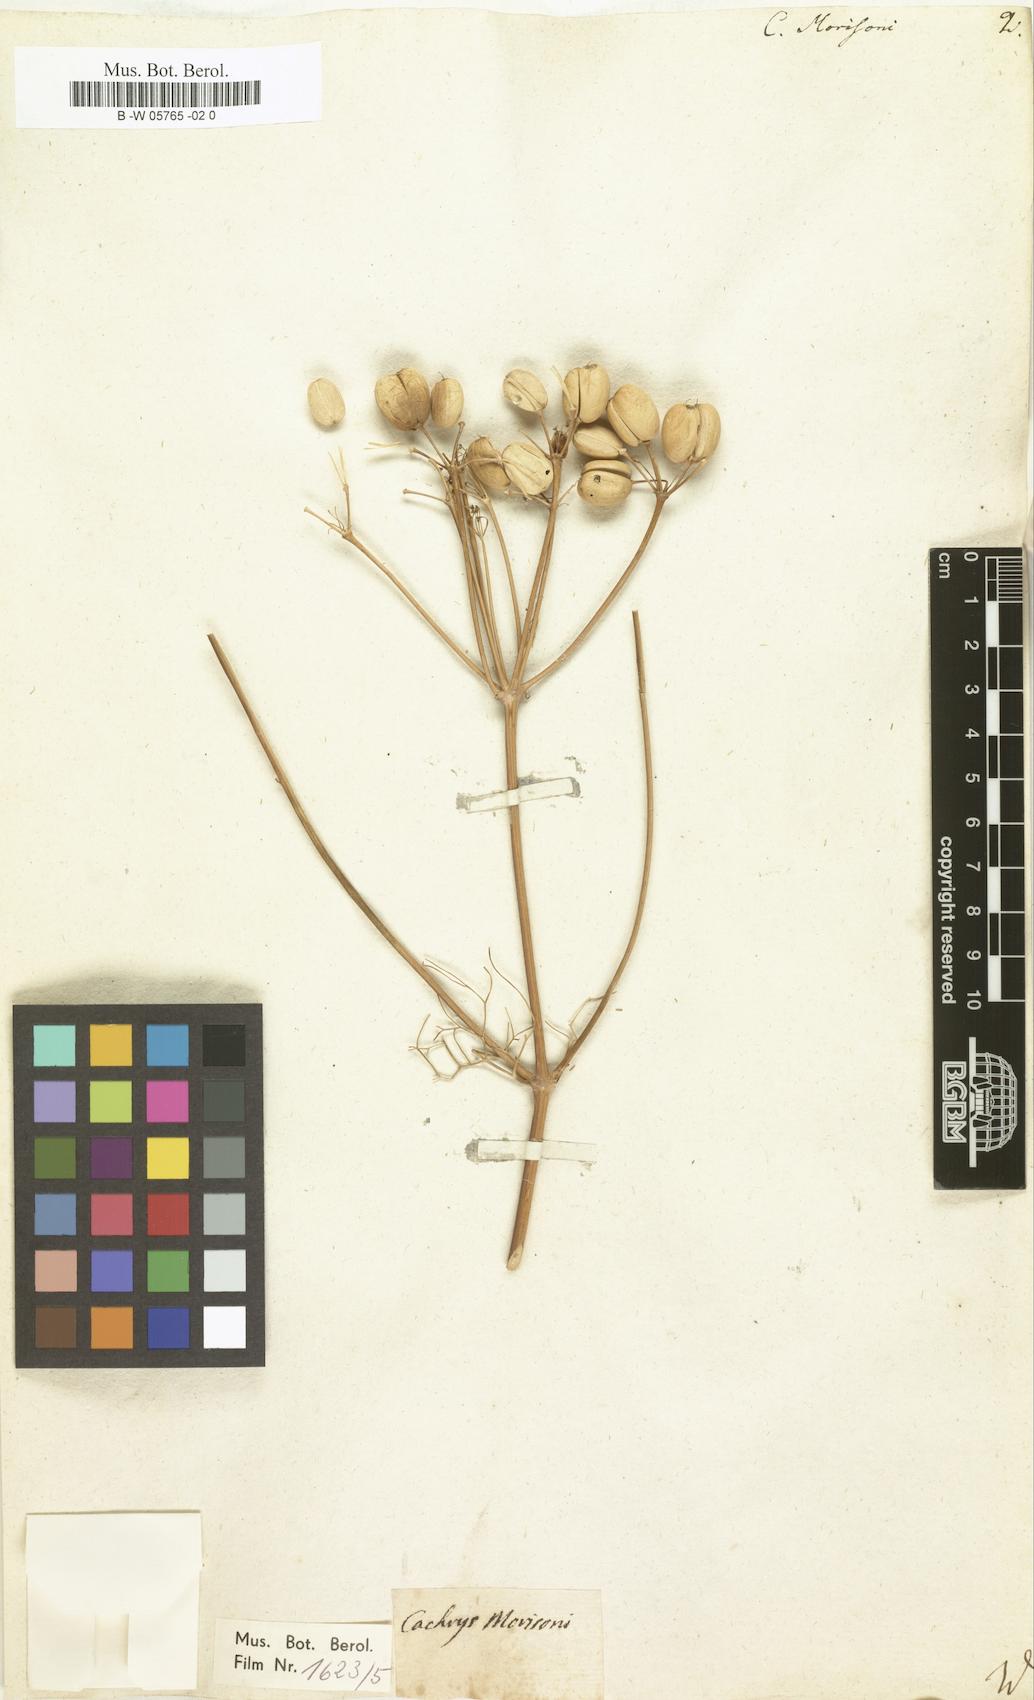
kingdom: Plantae
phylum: Tracheophyta
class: Magnoliopsida
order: Apiales
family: Apiaceae
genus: Prangos
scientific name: Prangos trifida
